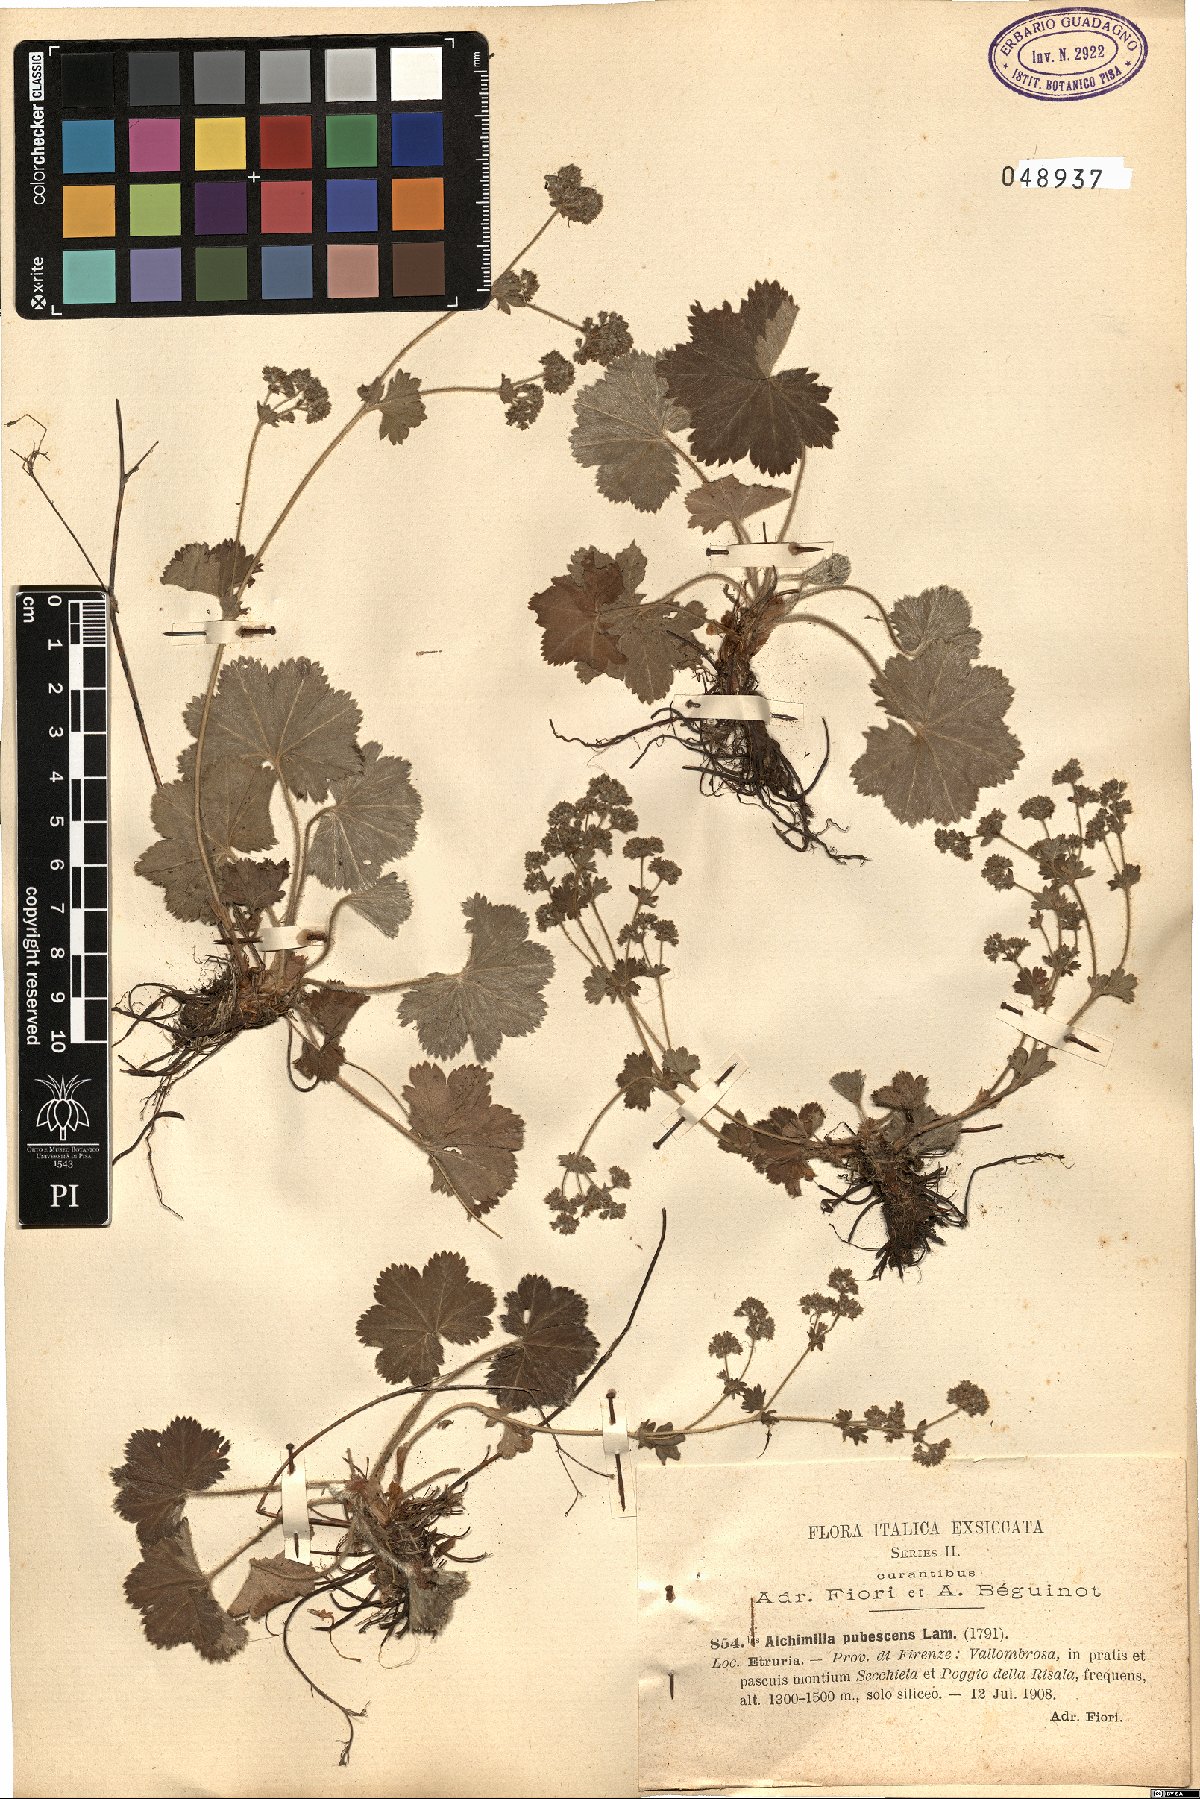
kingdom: Plantae
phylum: Tracheophyta
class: Magnoliopsida
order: Rosales
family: Rosaceae
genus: Alchemilla
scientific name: Alchemilla glaucescens
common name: Silky lady's mantle
